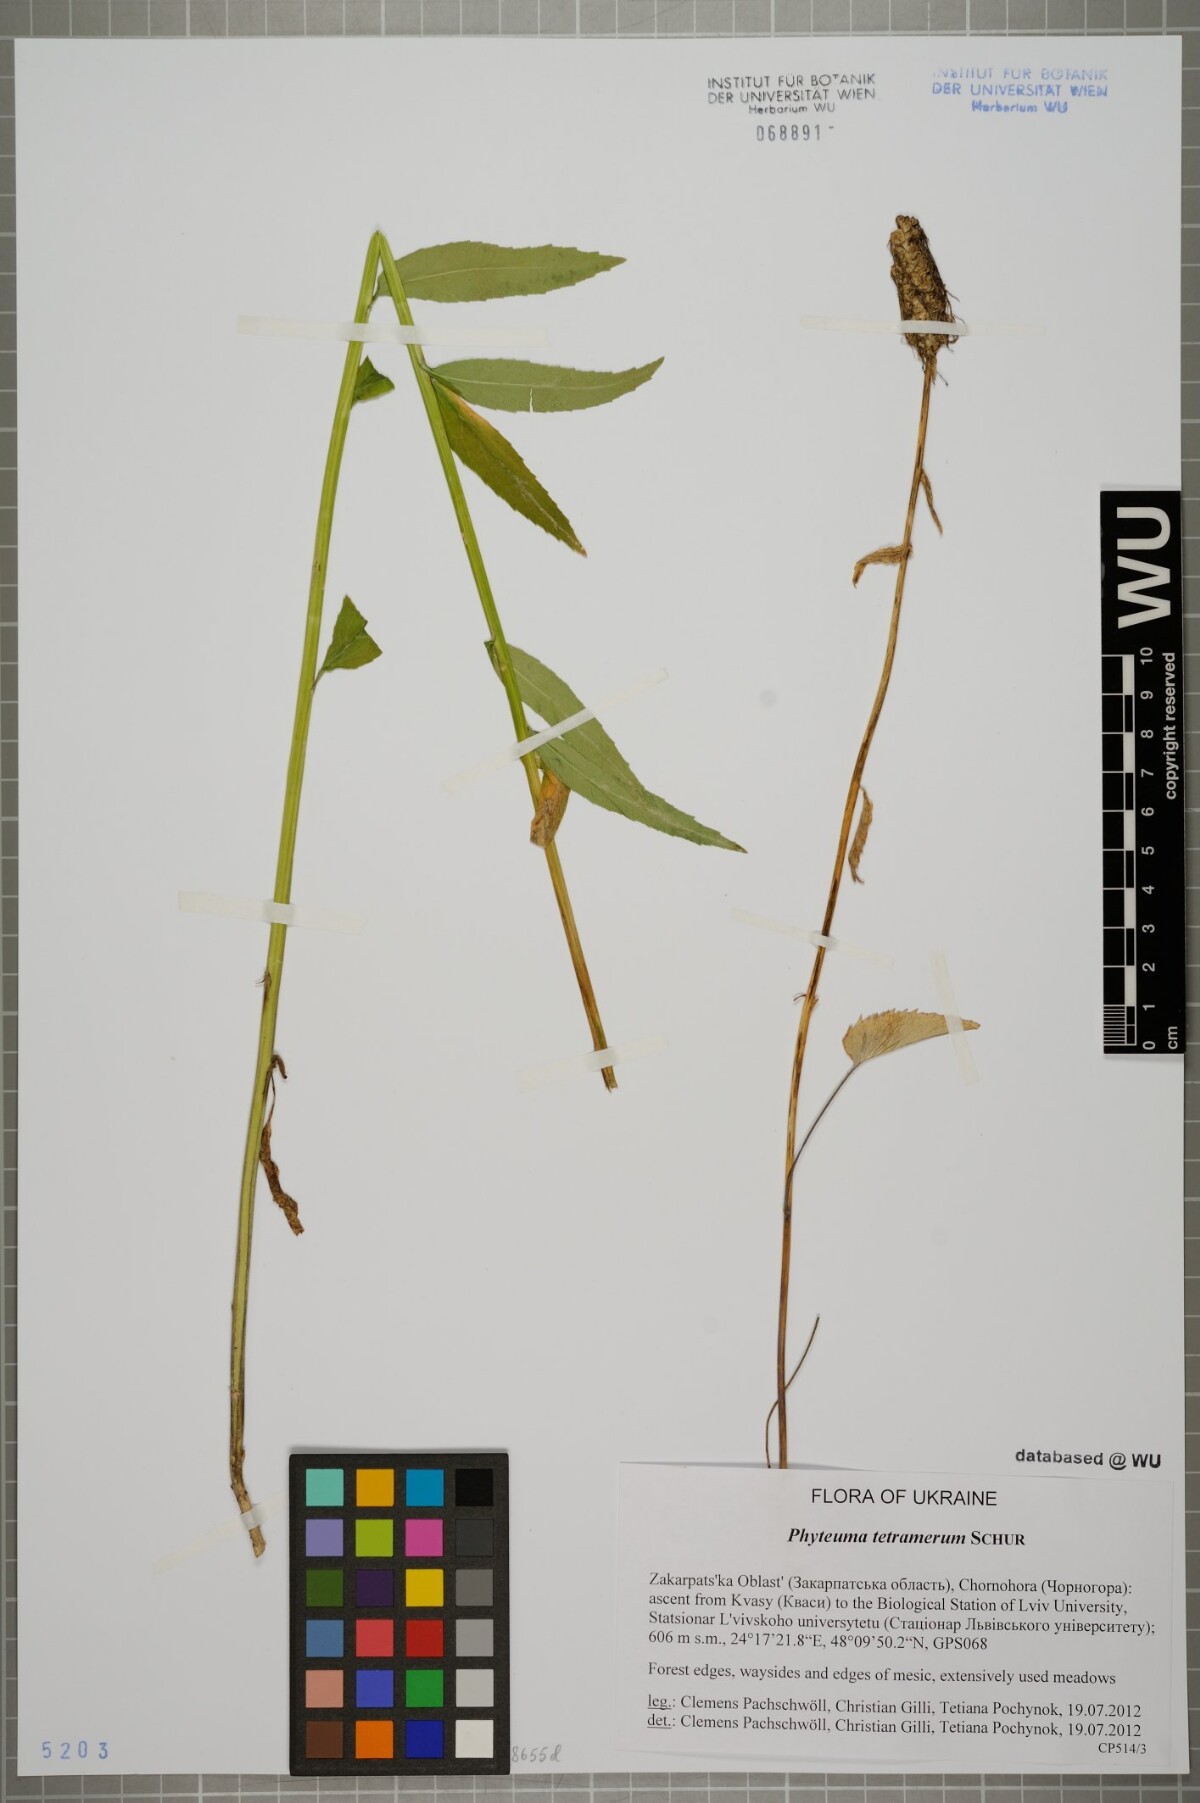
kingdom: Plantae
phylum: Tracheophyta
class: Magnoliopsida
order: Asterales
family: Campanulaceae
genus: Phyteuma
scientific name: Phyteuma tetramerum
